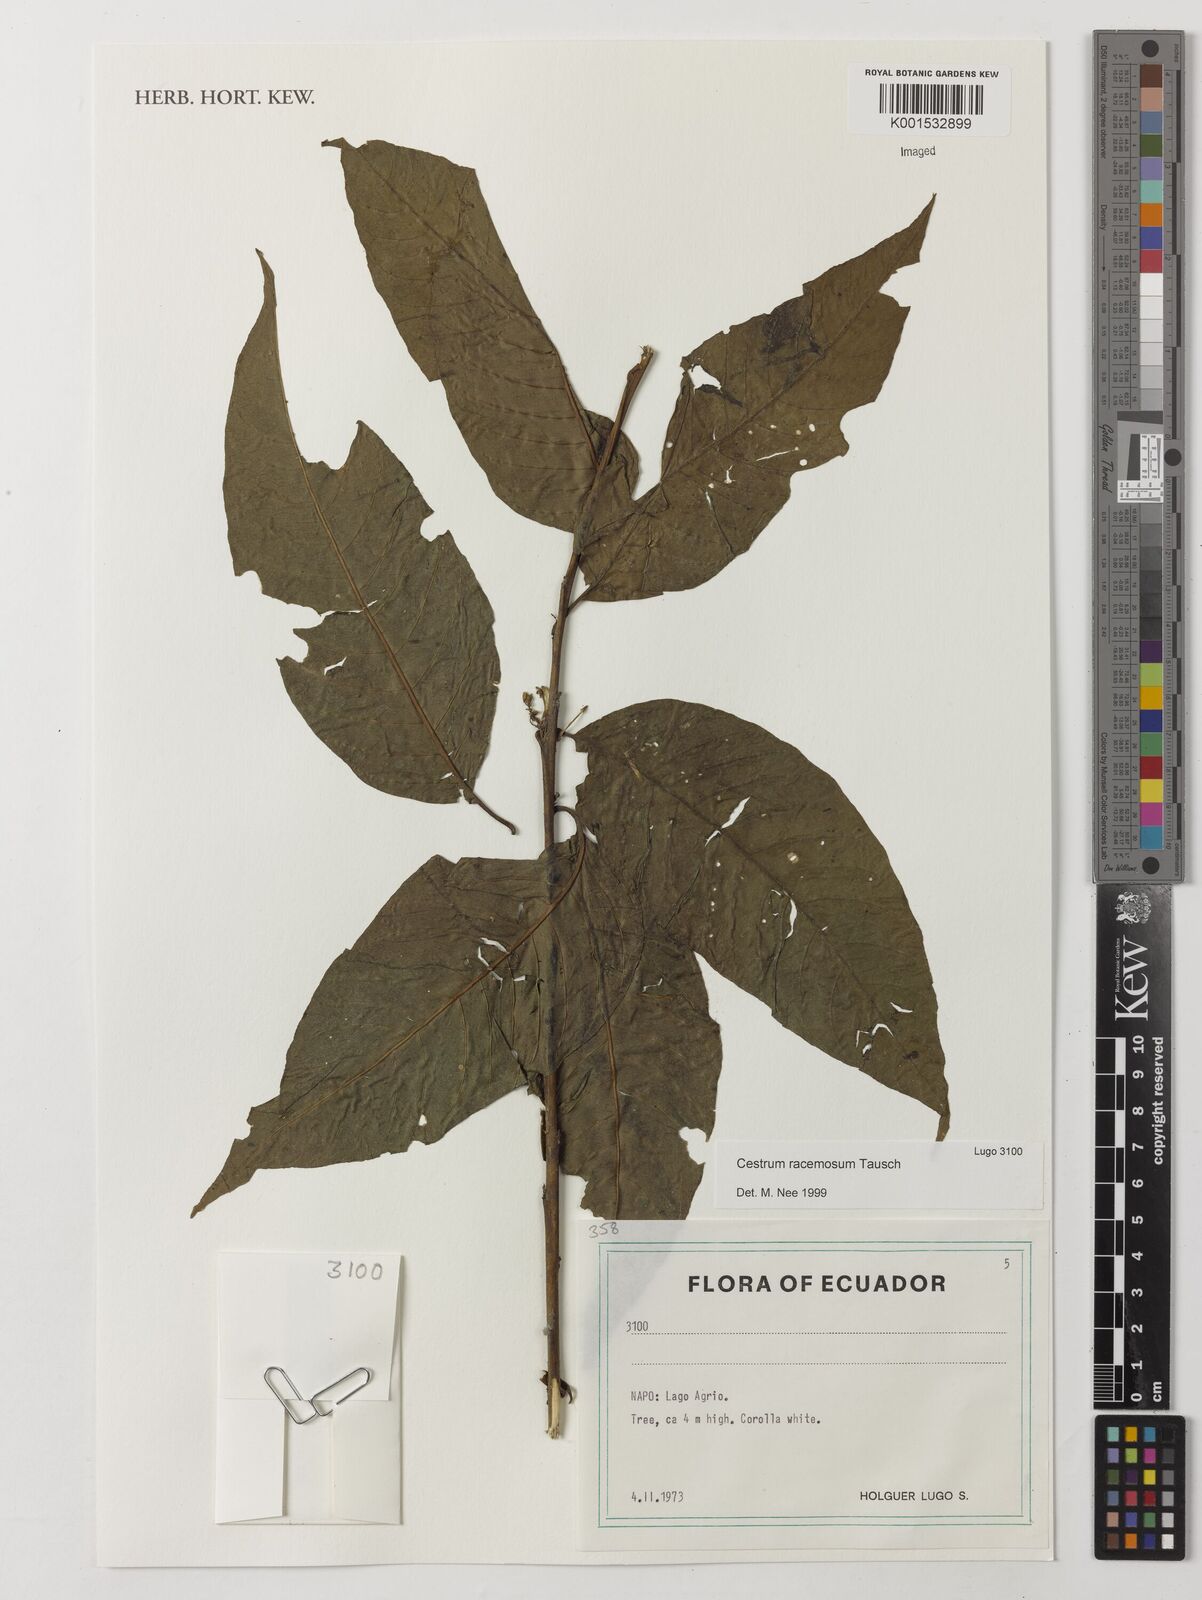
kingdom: Plantae
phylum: Tracheophyta
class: Magnoliopsida
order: Solanales
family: Solanaceae
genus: Cestrum
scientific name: Cestrum lindenii
